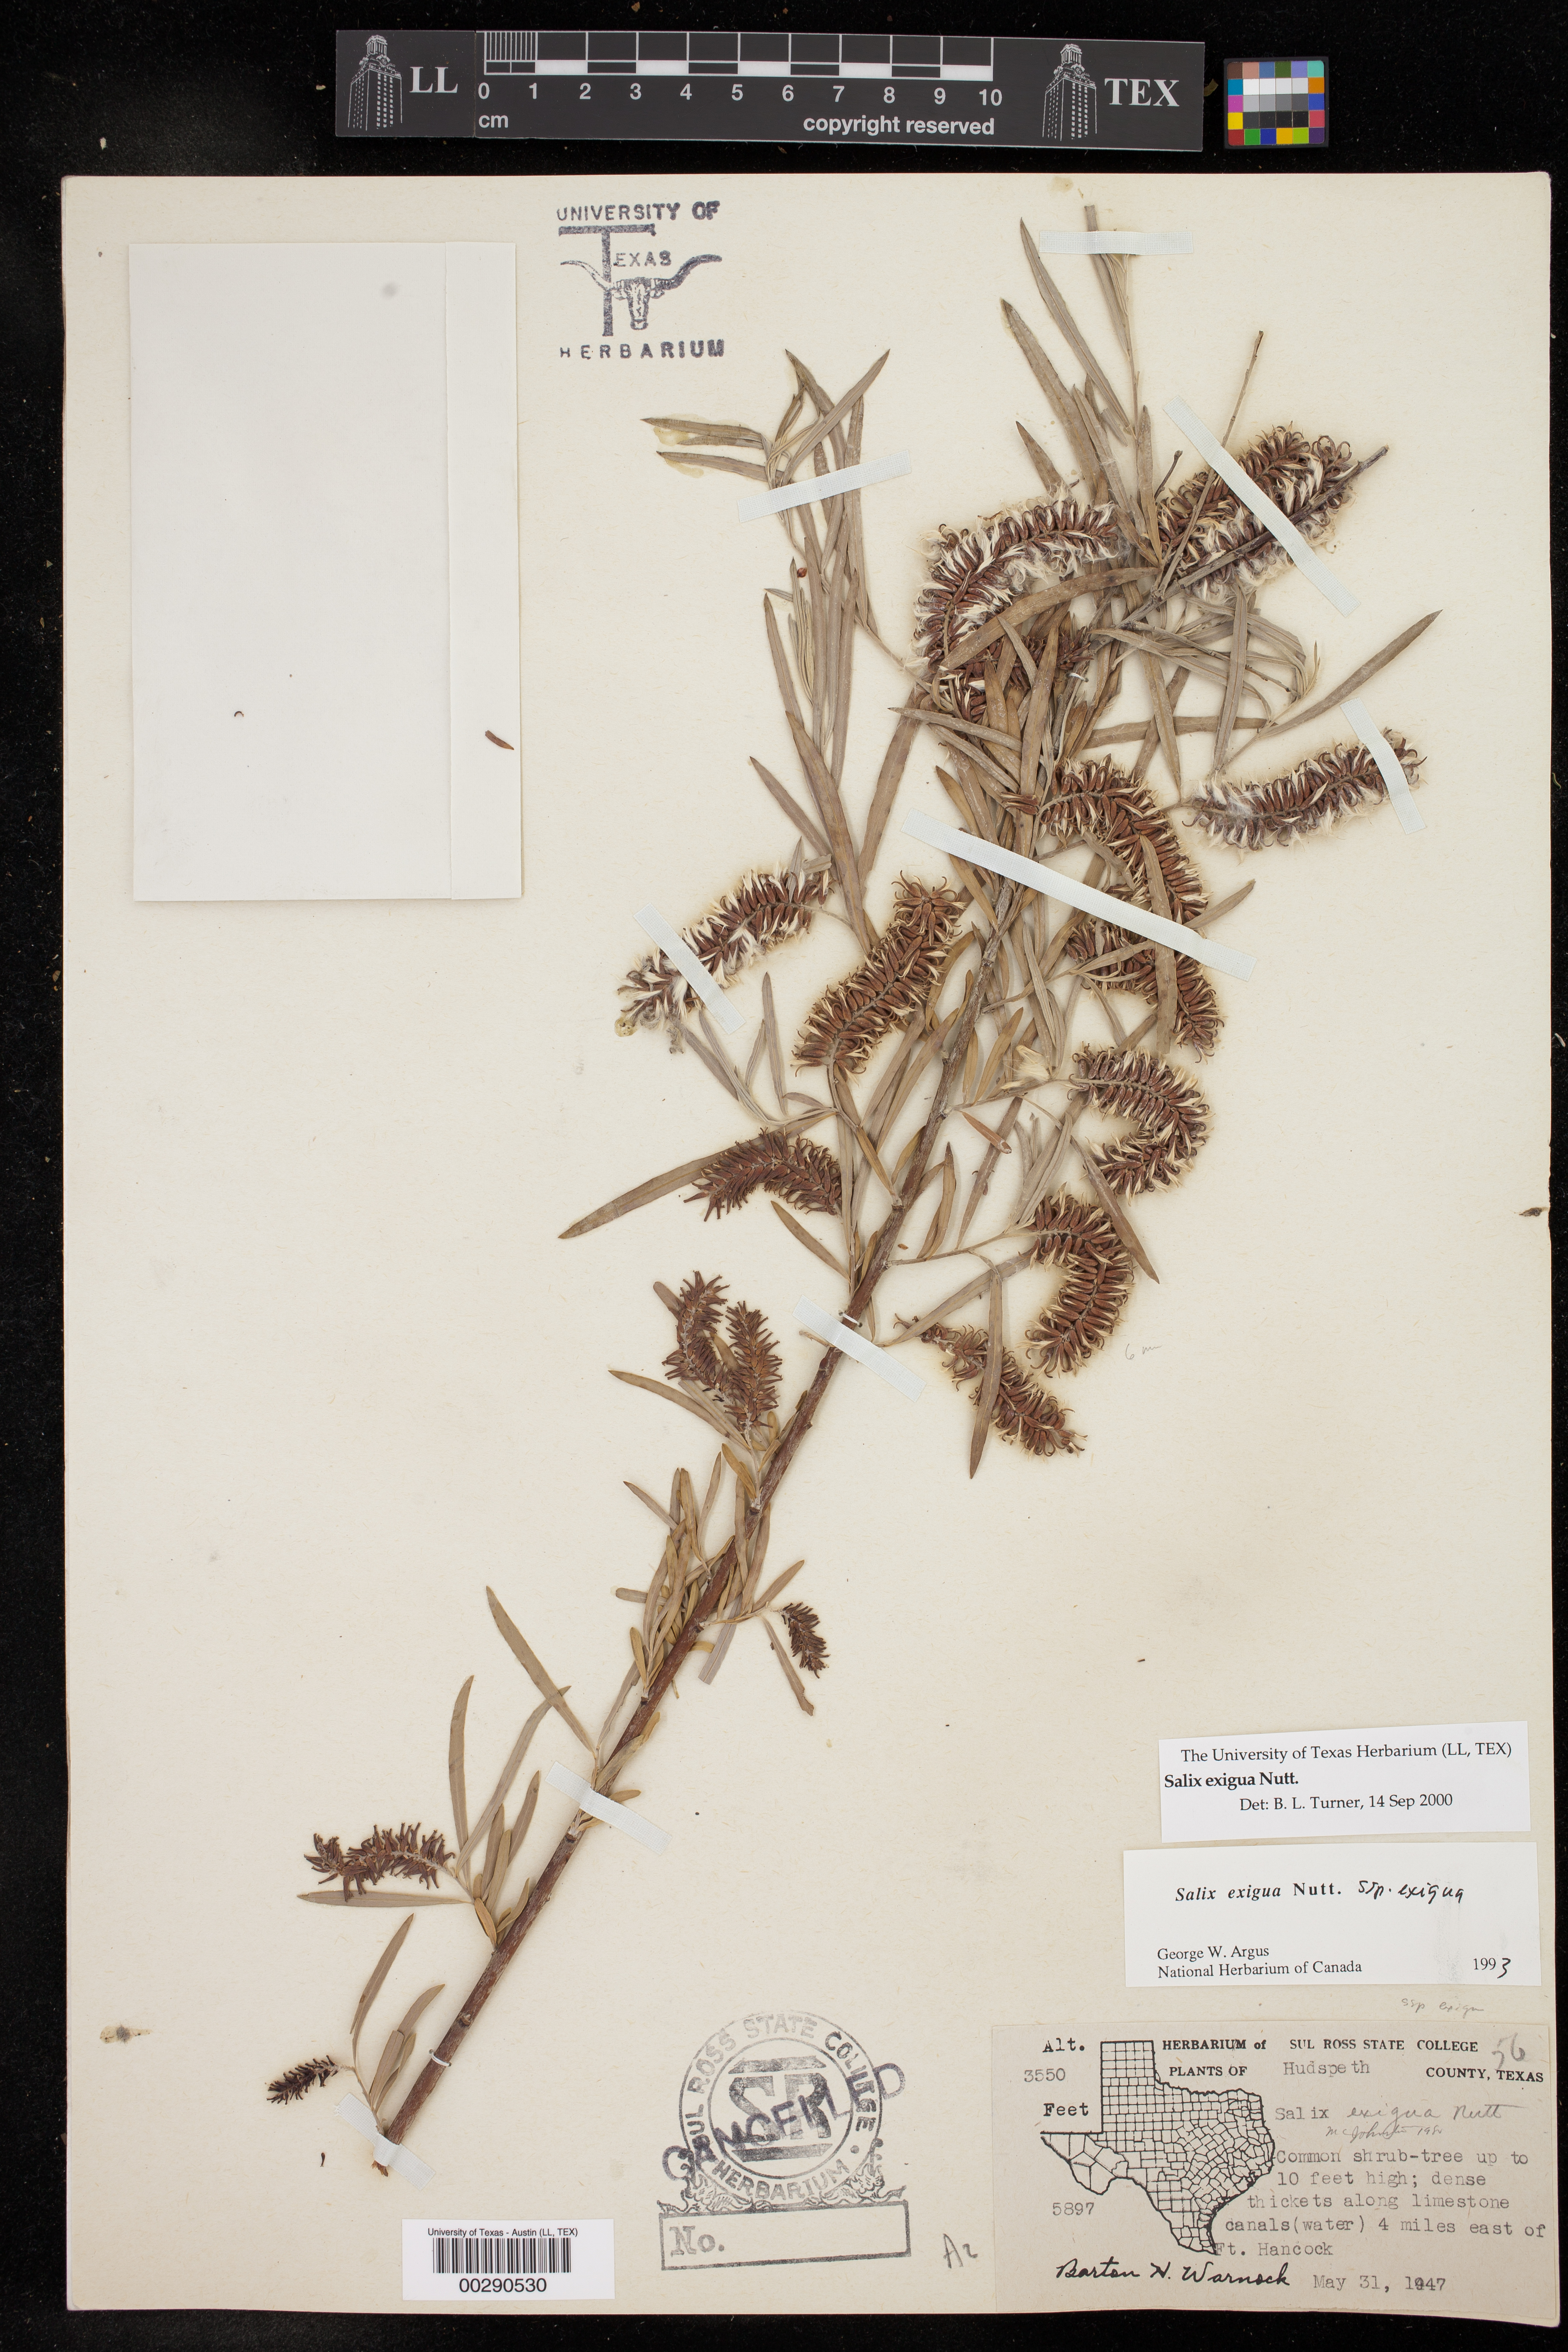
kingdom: Plantae
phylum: Tracheophyta
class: Magnoliopsida
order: Malpighiales
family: Salicaceae
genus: Salix
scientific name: Salix exigua
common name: Coyote willow
